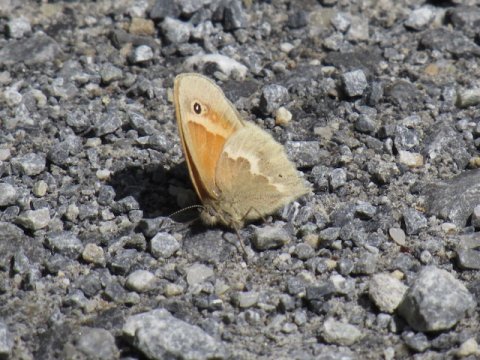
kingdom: Animalia
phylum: Arthropoda
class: Insecta
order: Lepidoptera
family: Nymphalidae
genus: Coenonympha
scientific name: Coenonympha tullia
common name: Large Heath
